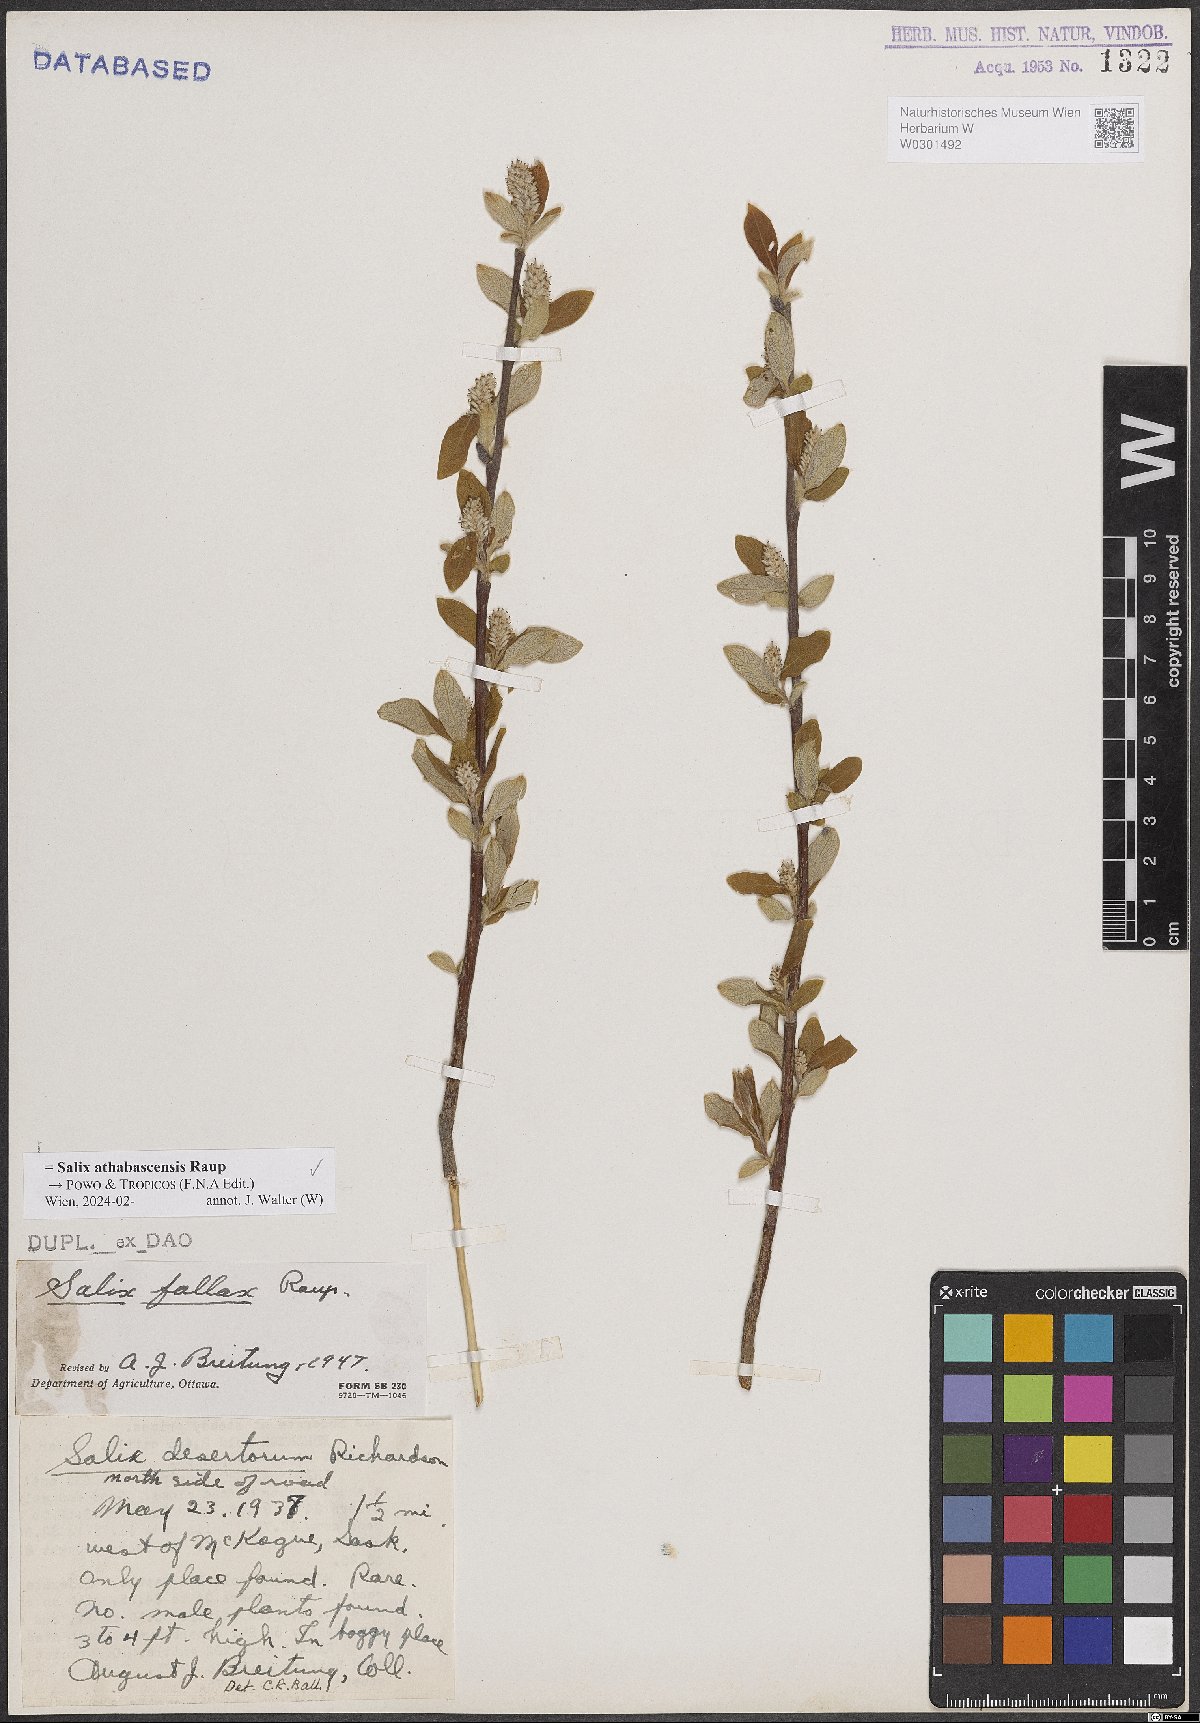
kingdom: Plantae
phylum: Tracheophyta
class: Magnoliopsida
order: Malpighiales
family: Salicaceae
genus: Salix
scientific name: Salix athabascensis
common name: Athabasca willow
